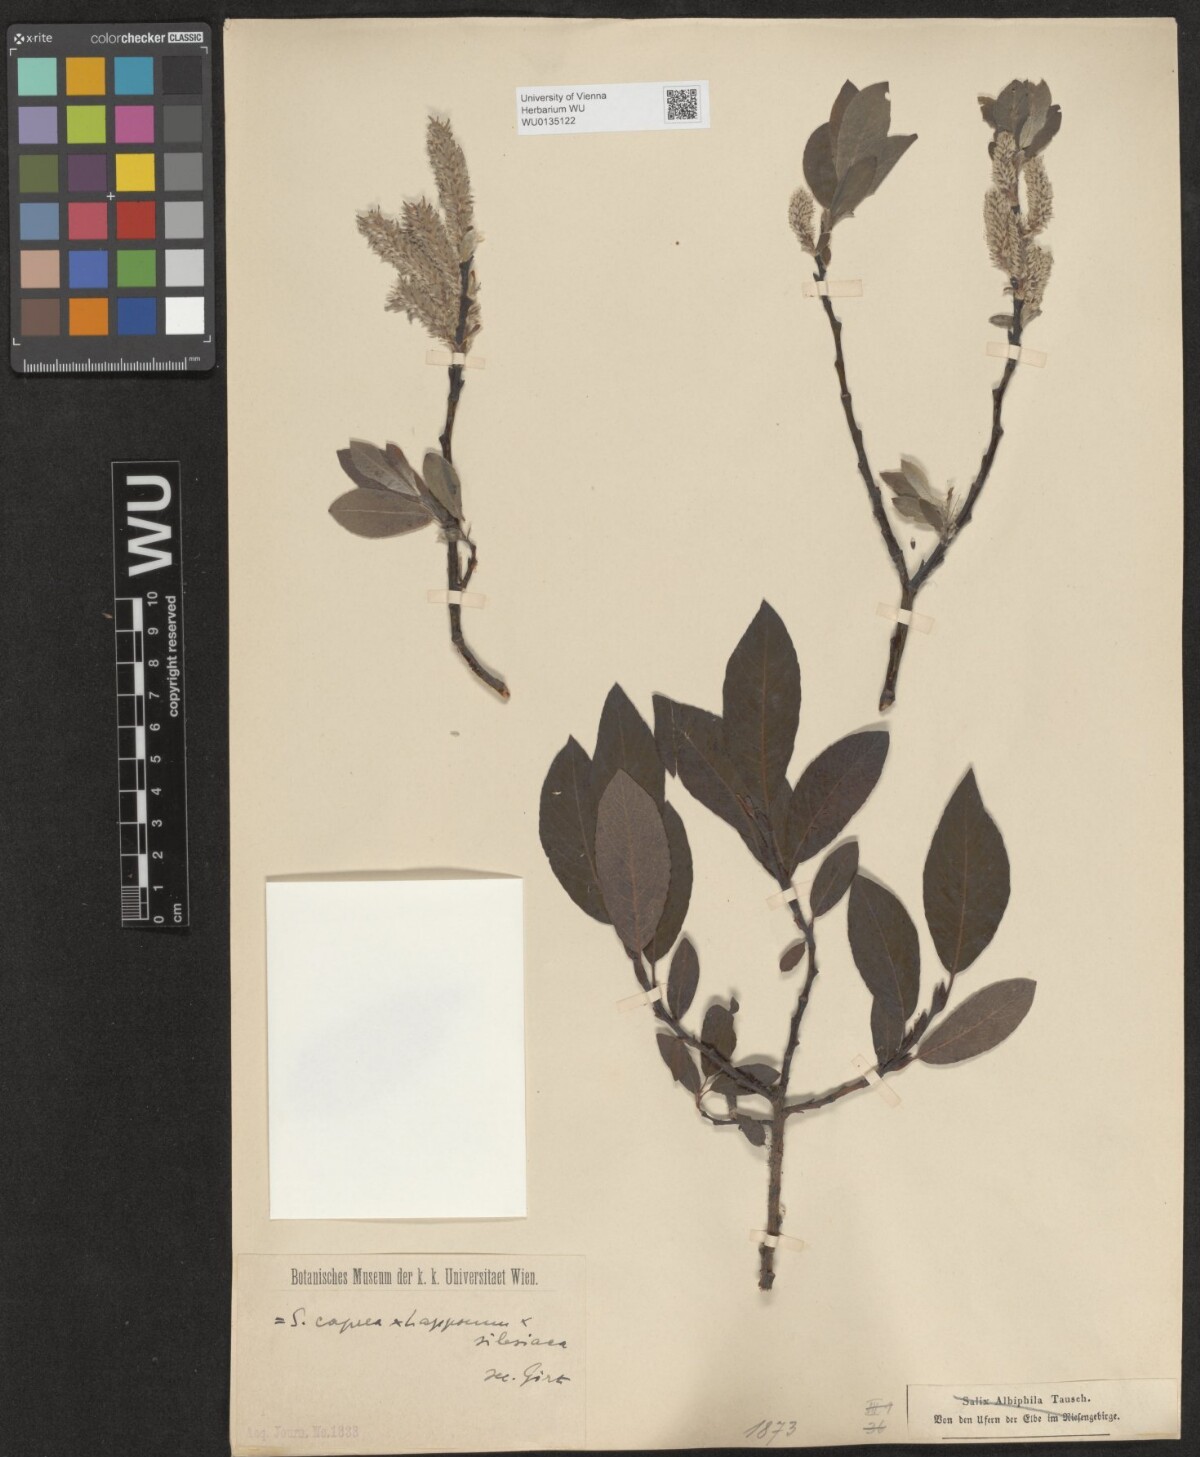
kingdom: Plantae
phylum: Tracheophyta
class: Magnoliopsida
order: Malpighiales
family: Salicaceae
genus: Salix
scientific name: Salix
